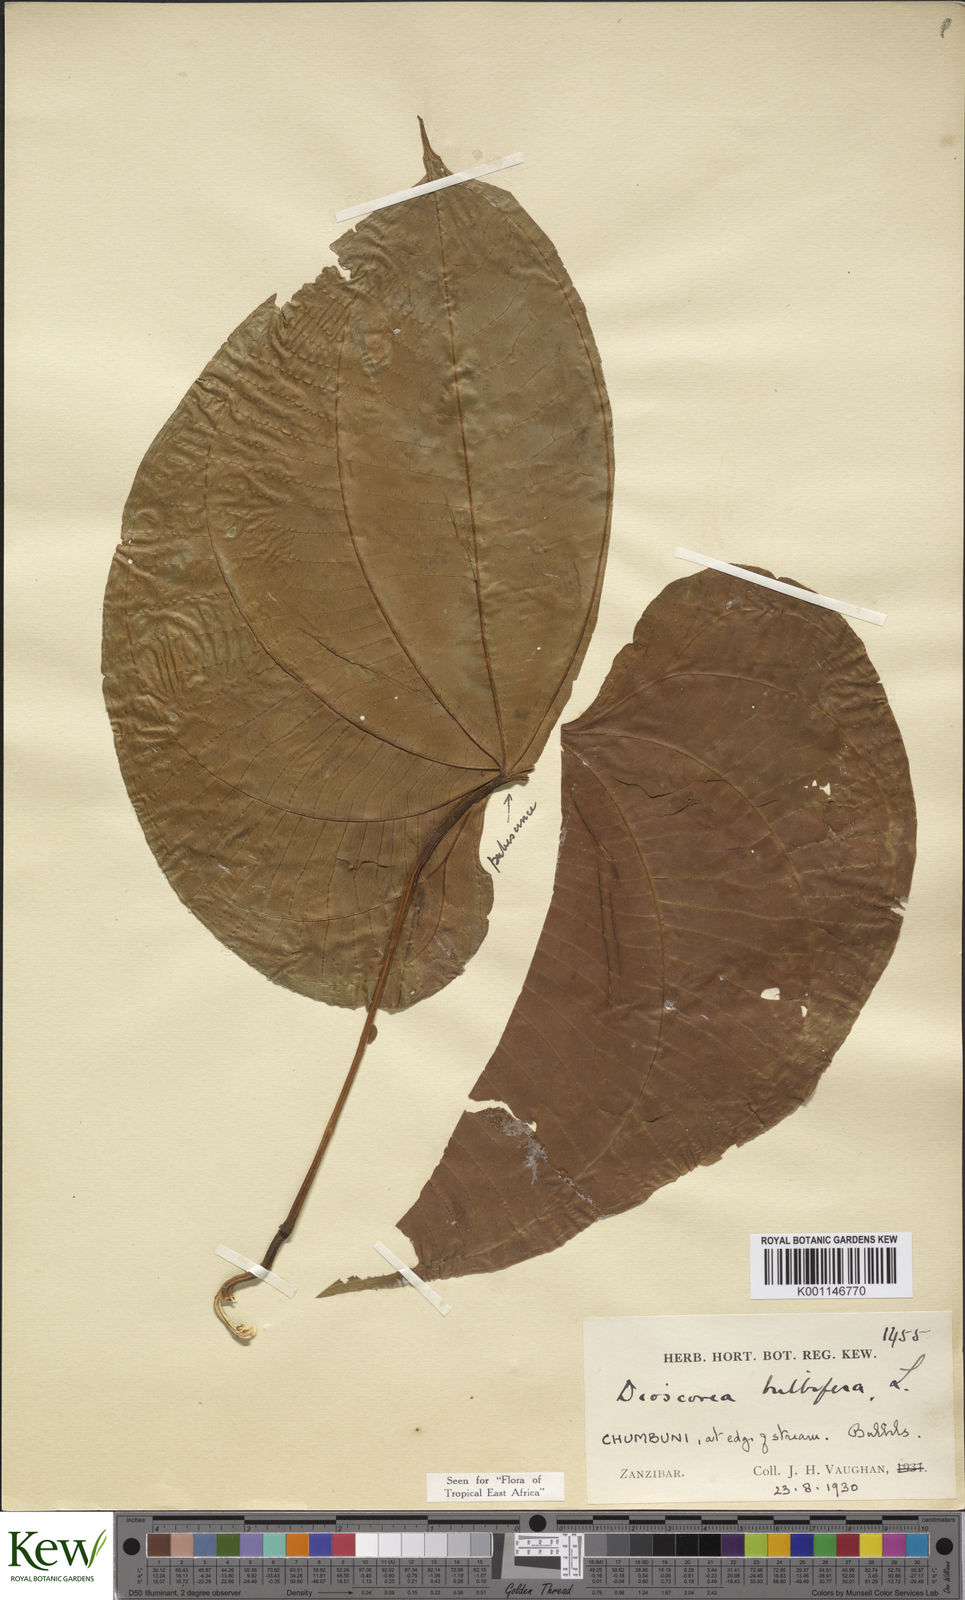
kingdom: Plantae
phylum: Tracheophyta
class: Liliopsida
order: Dioscoreales
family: Dioscoreaceae
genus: Dioscorea
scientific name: Dioscorea bulbifera
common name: Air yam
